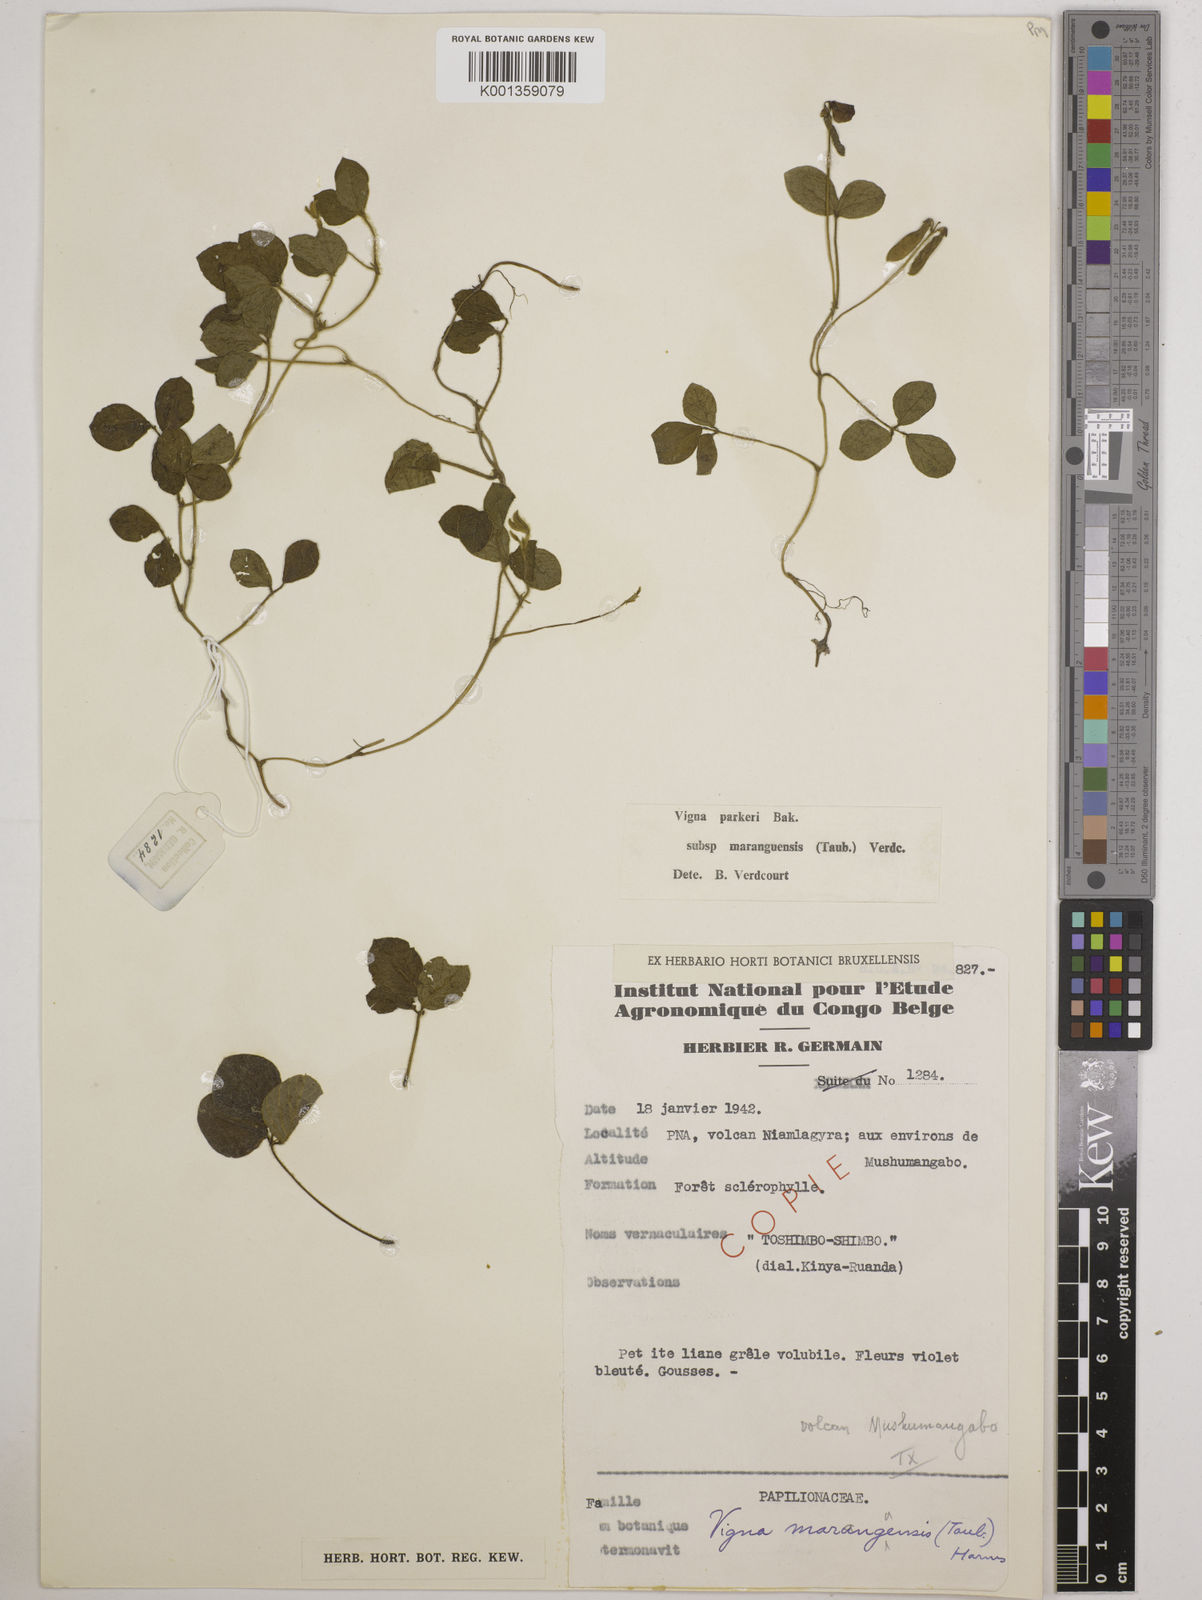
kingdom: Plantae
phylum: Tracheophyta
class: Magnoliopsida
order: Fabales
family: Fabaceae
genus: Vigna
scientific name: Vigna
